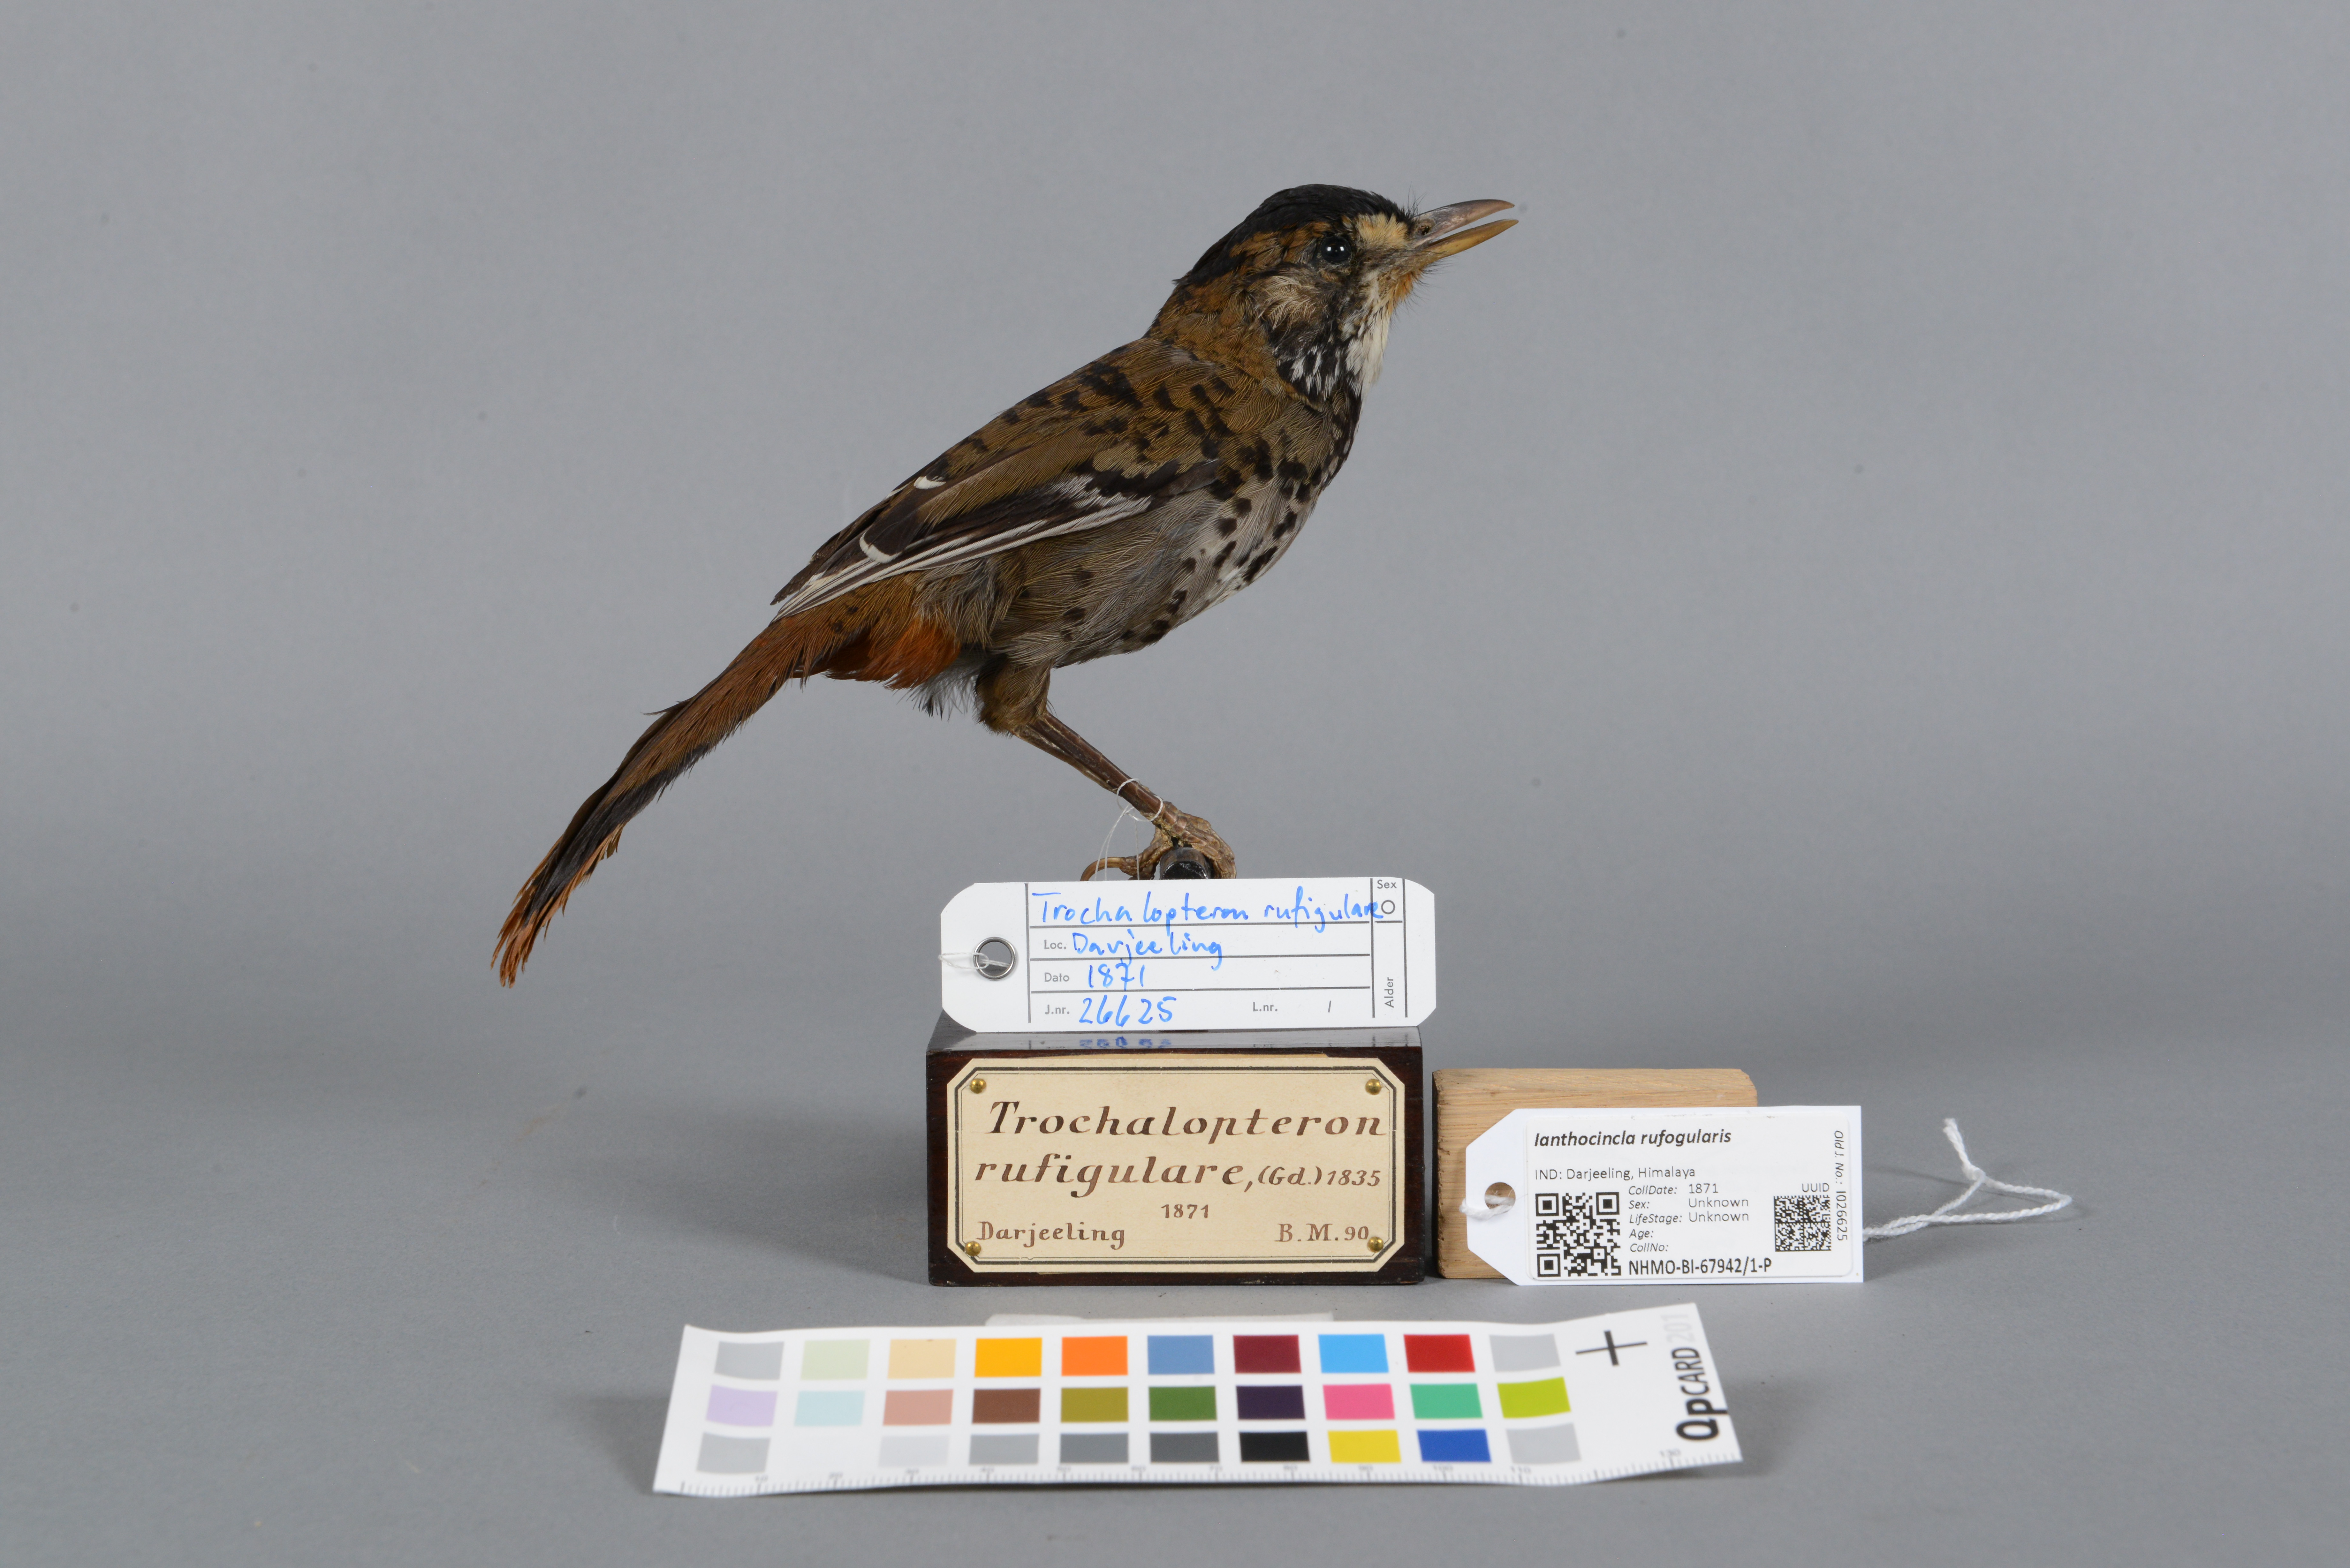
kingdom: Animalia
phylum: Chordata
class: Aves
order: Passeriformes
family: Leiothrichidae
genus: Garrulax
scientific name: Garrulax rufogularis
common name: Rufous-chinned laughingthrush
